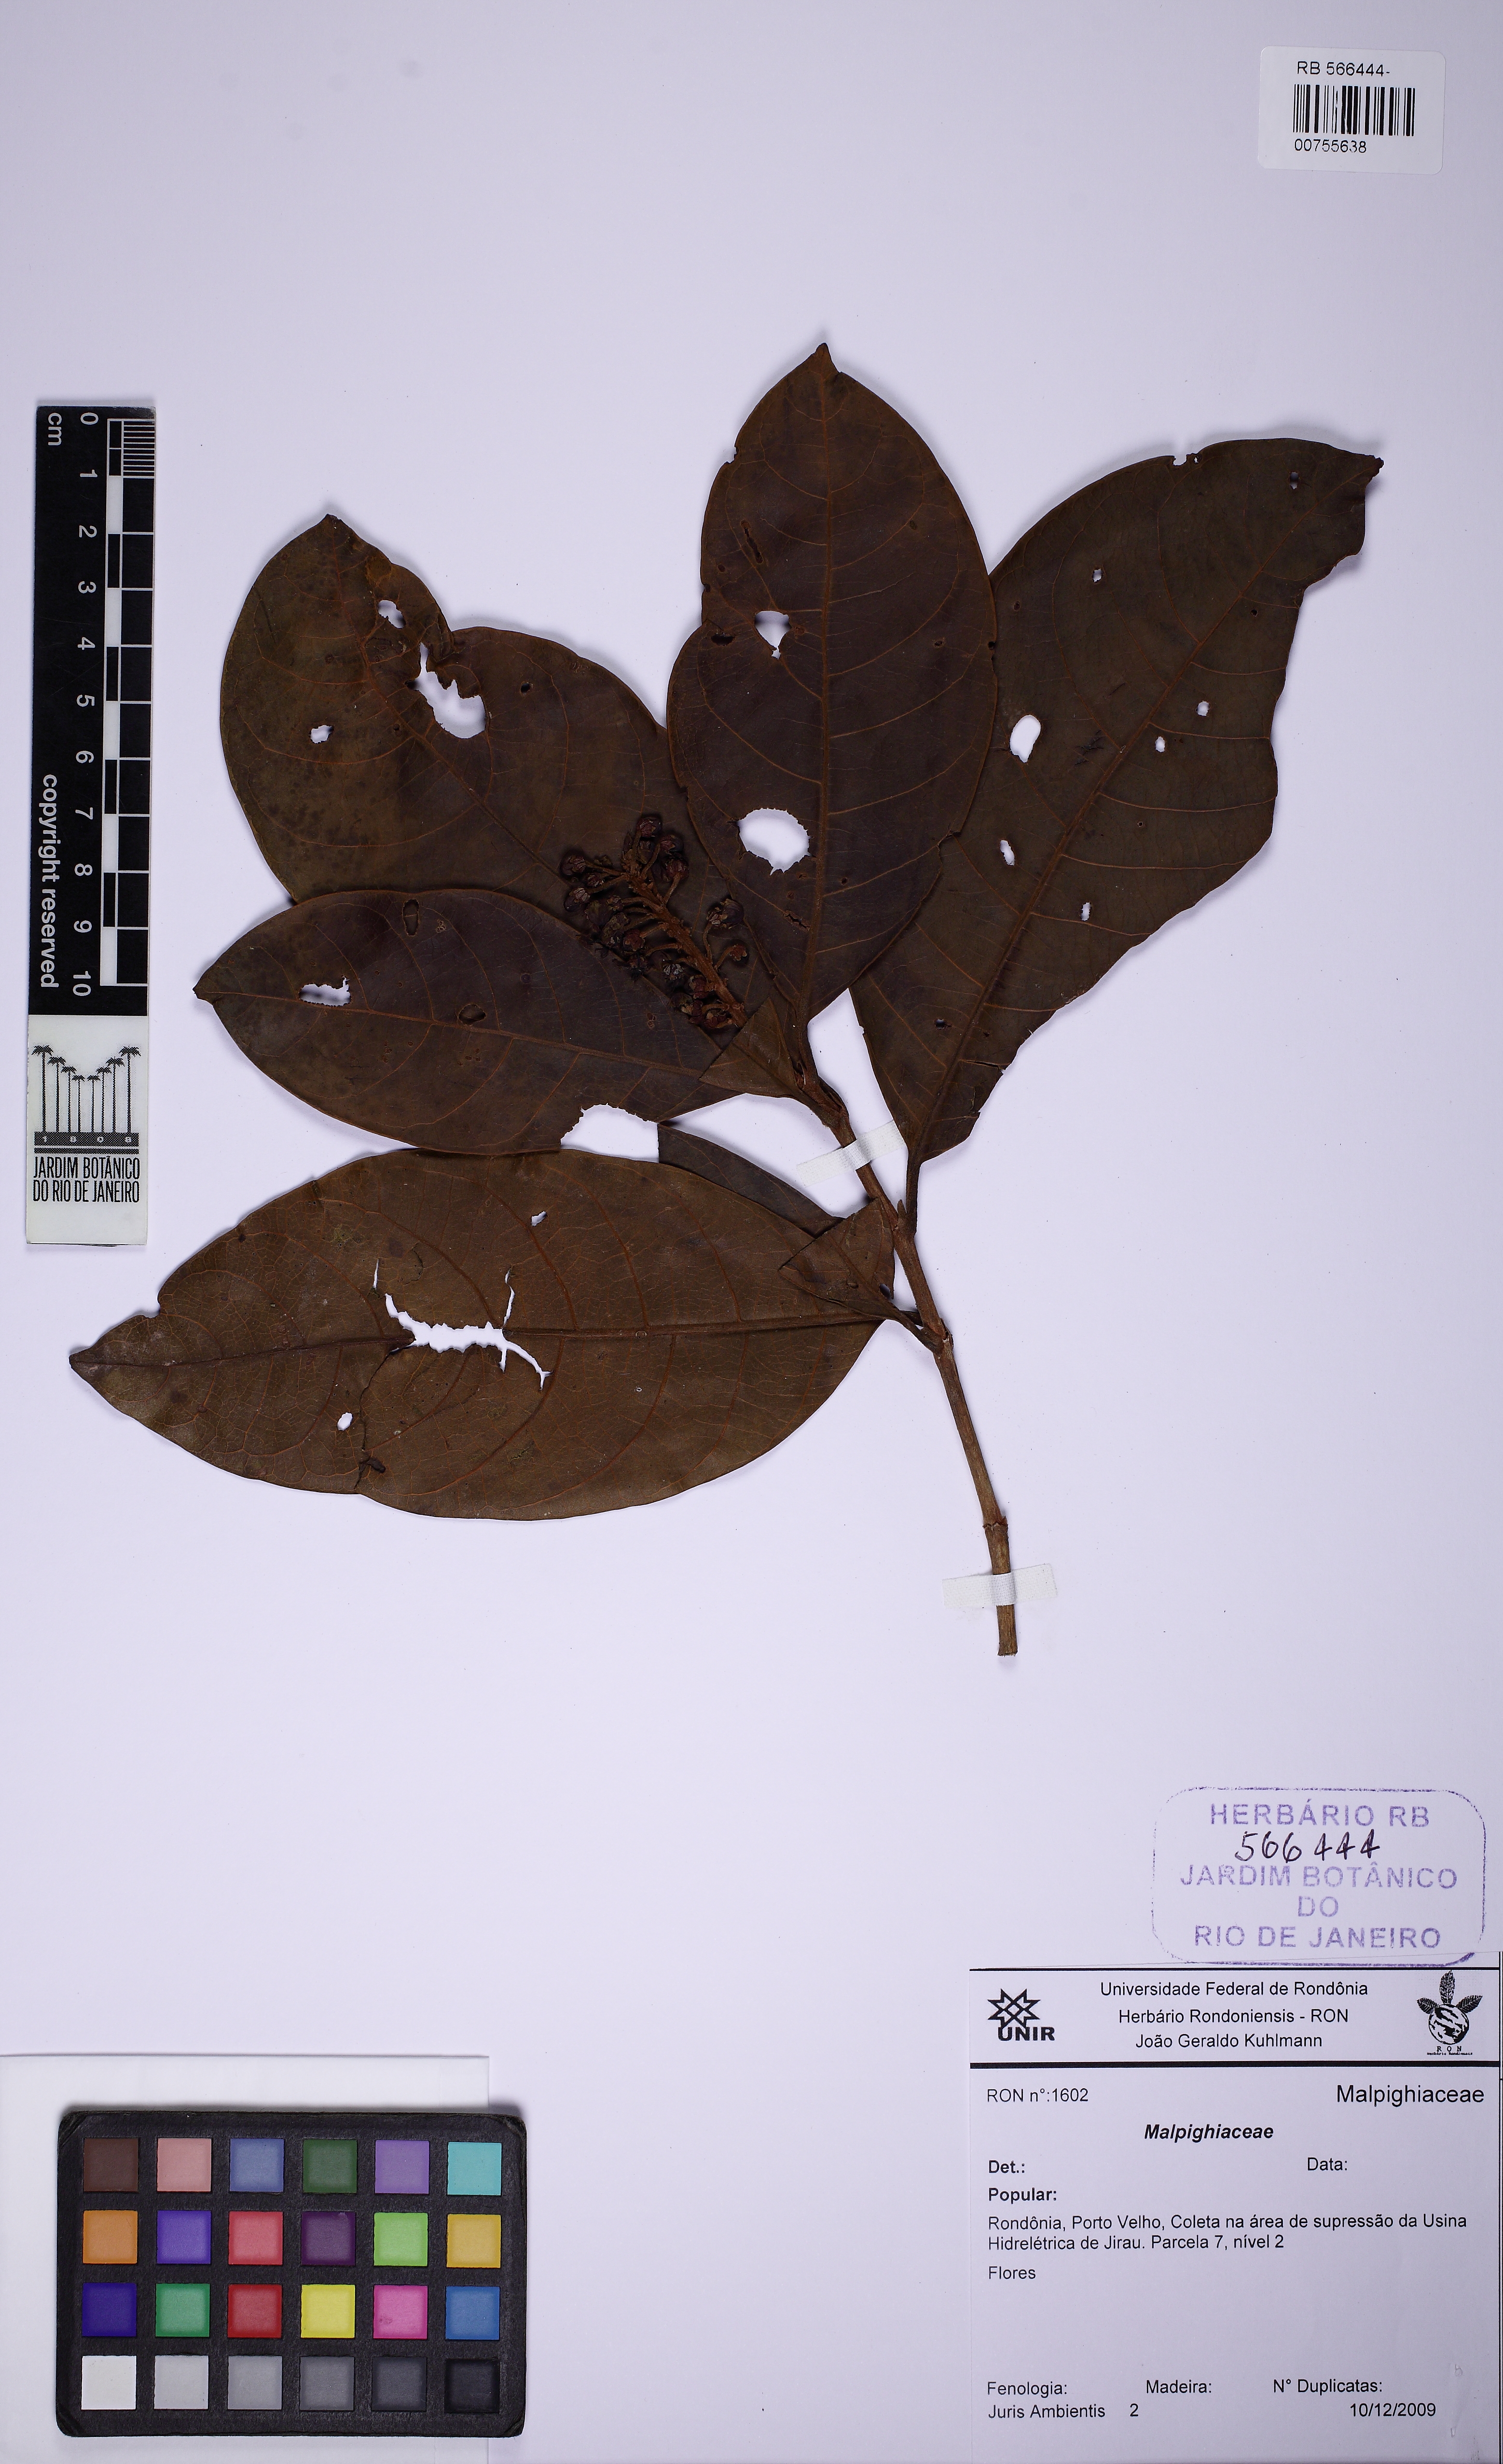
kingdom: Plantae
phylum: Tracheophyta
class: Magnoliopsida
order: Malpighiales
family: Malpighiaceae
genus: Byrsonima
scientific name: Byrsonima
